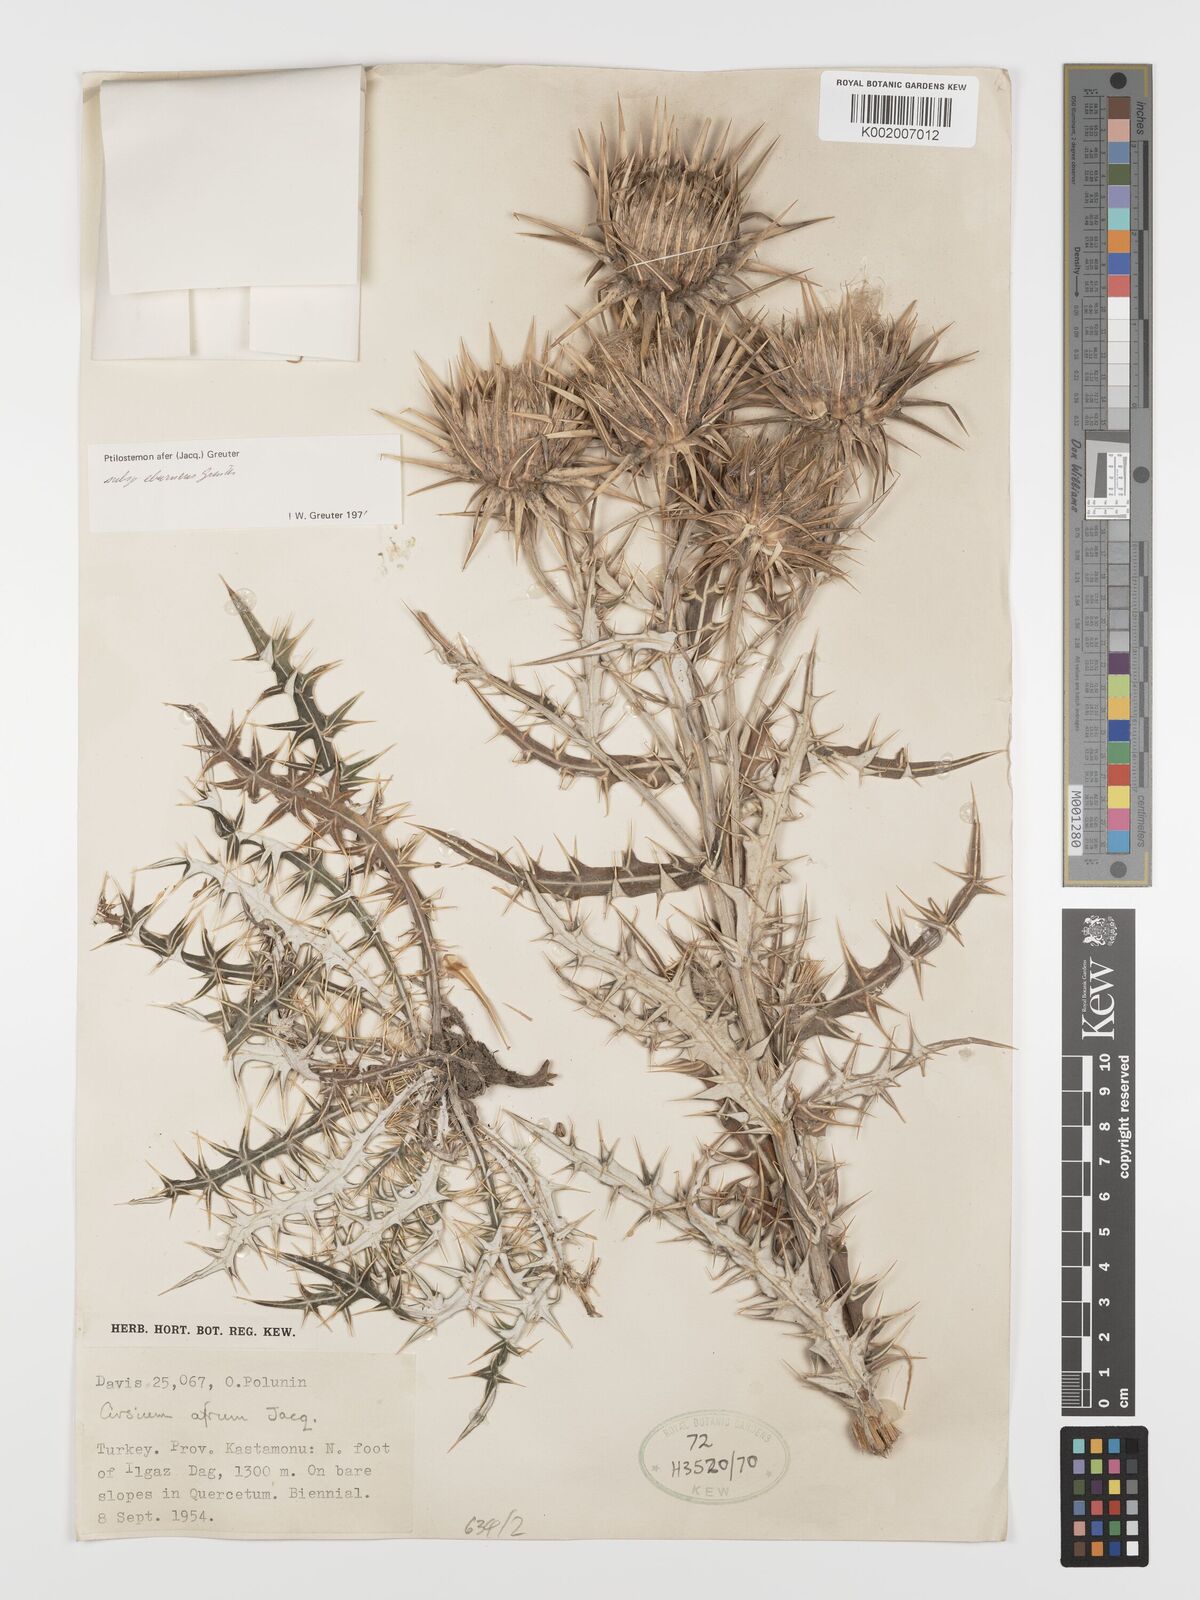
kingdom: Plantae
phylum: Tracheophyta
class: Magnoliopsida
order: Asterales
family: Asteraceae
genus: Ptilostemon
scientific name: Ptilostemon afer
